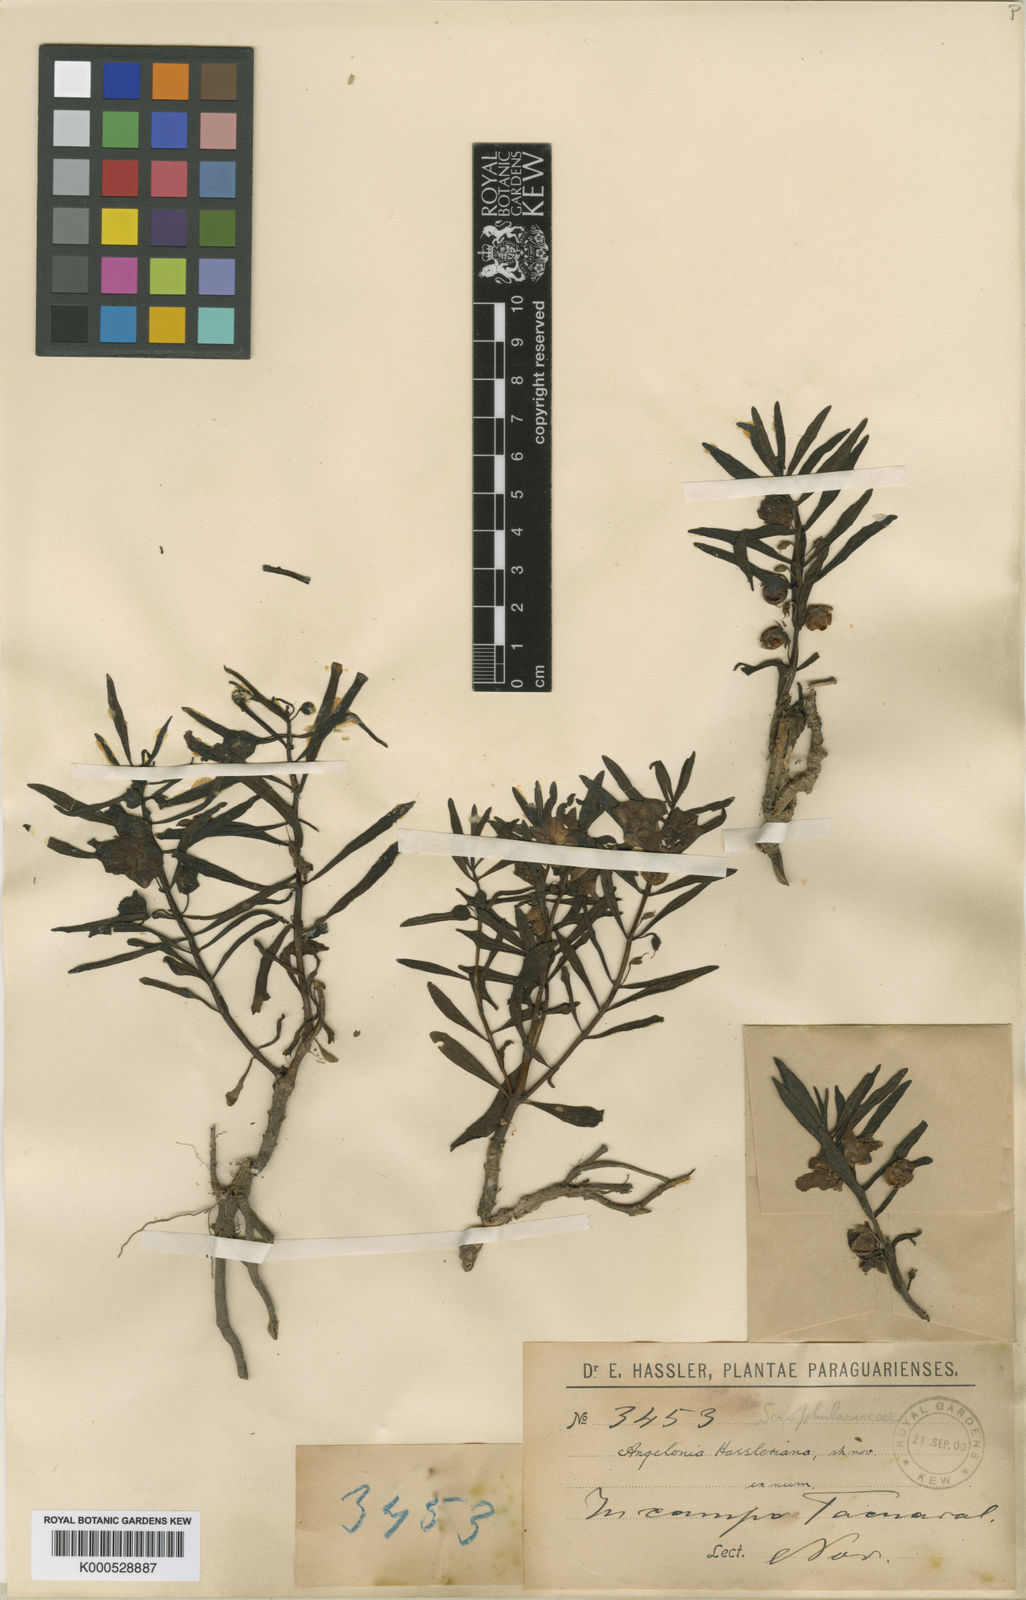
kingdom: Plantae
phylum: Tracheophyta
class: Magnoliopsida
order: Lamiales
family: Plantaginaceae
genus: Angelonia
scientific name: Angelonia hassleriana
